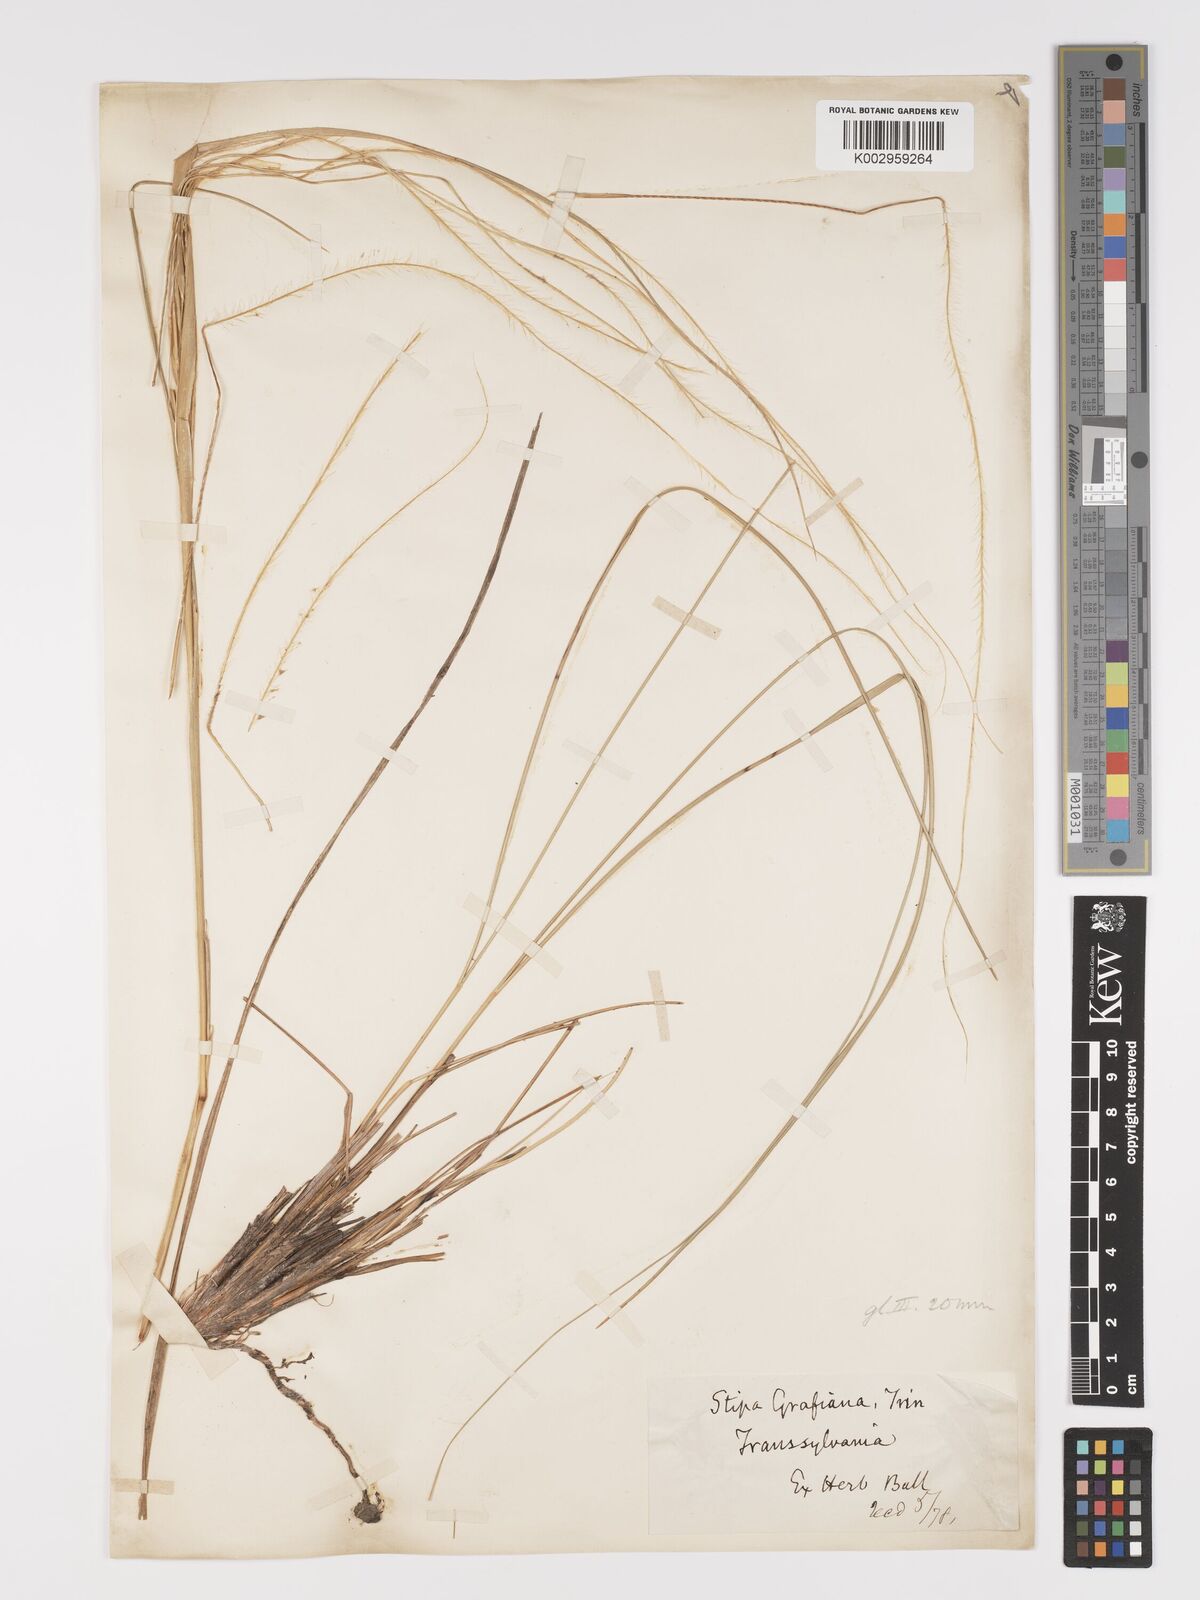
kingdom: Plantae
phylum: Tracheophyta
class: Liliopsida
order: Poales
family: Poaceae
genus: Stipa
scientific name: Stipa pulcherrima
